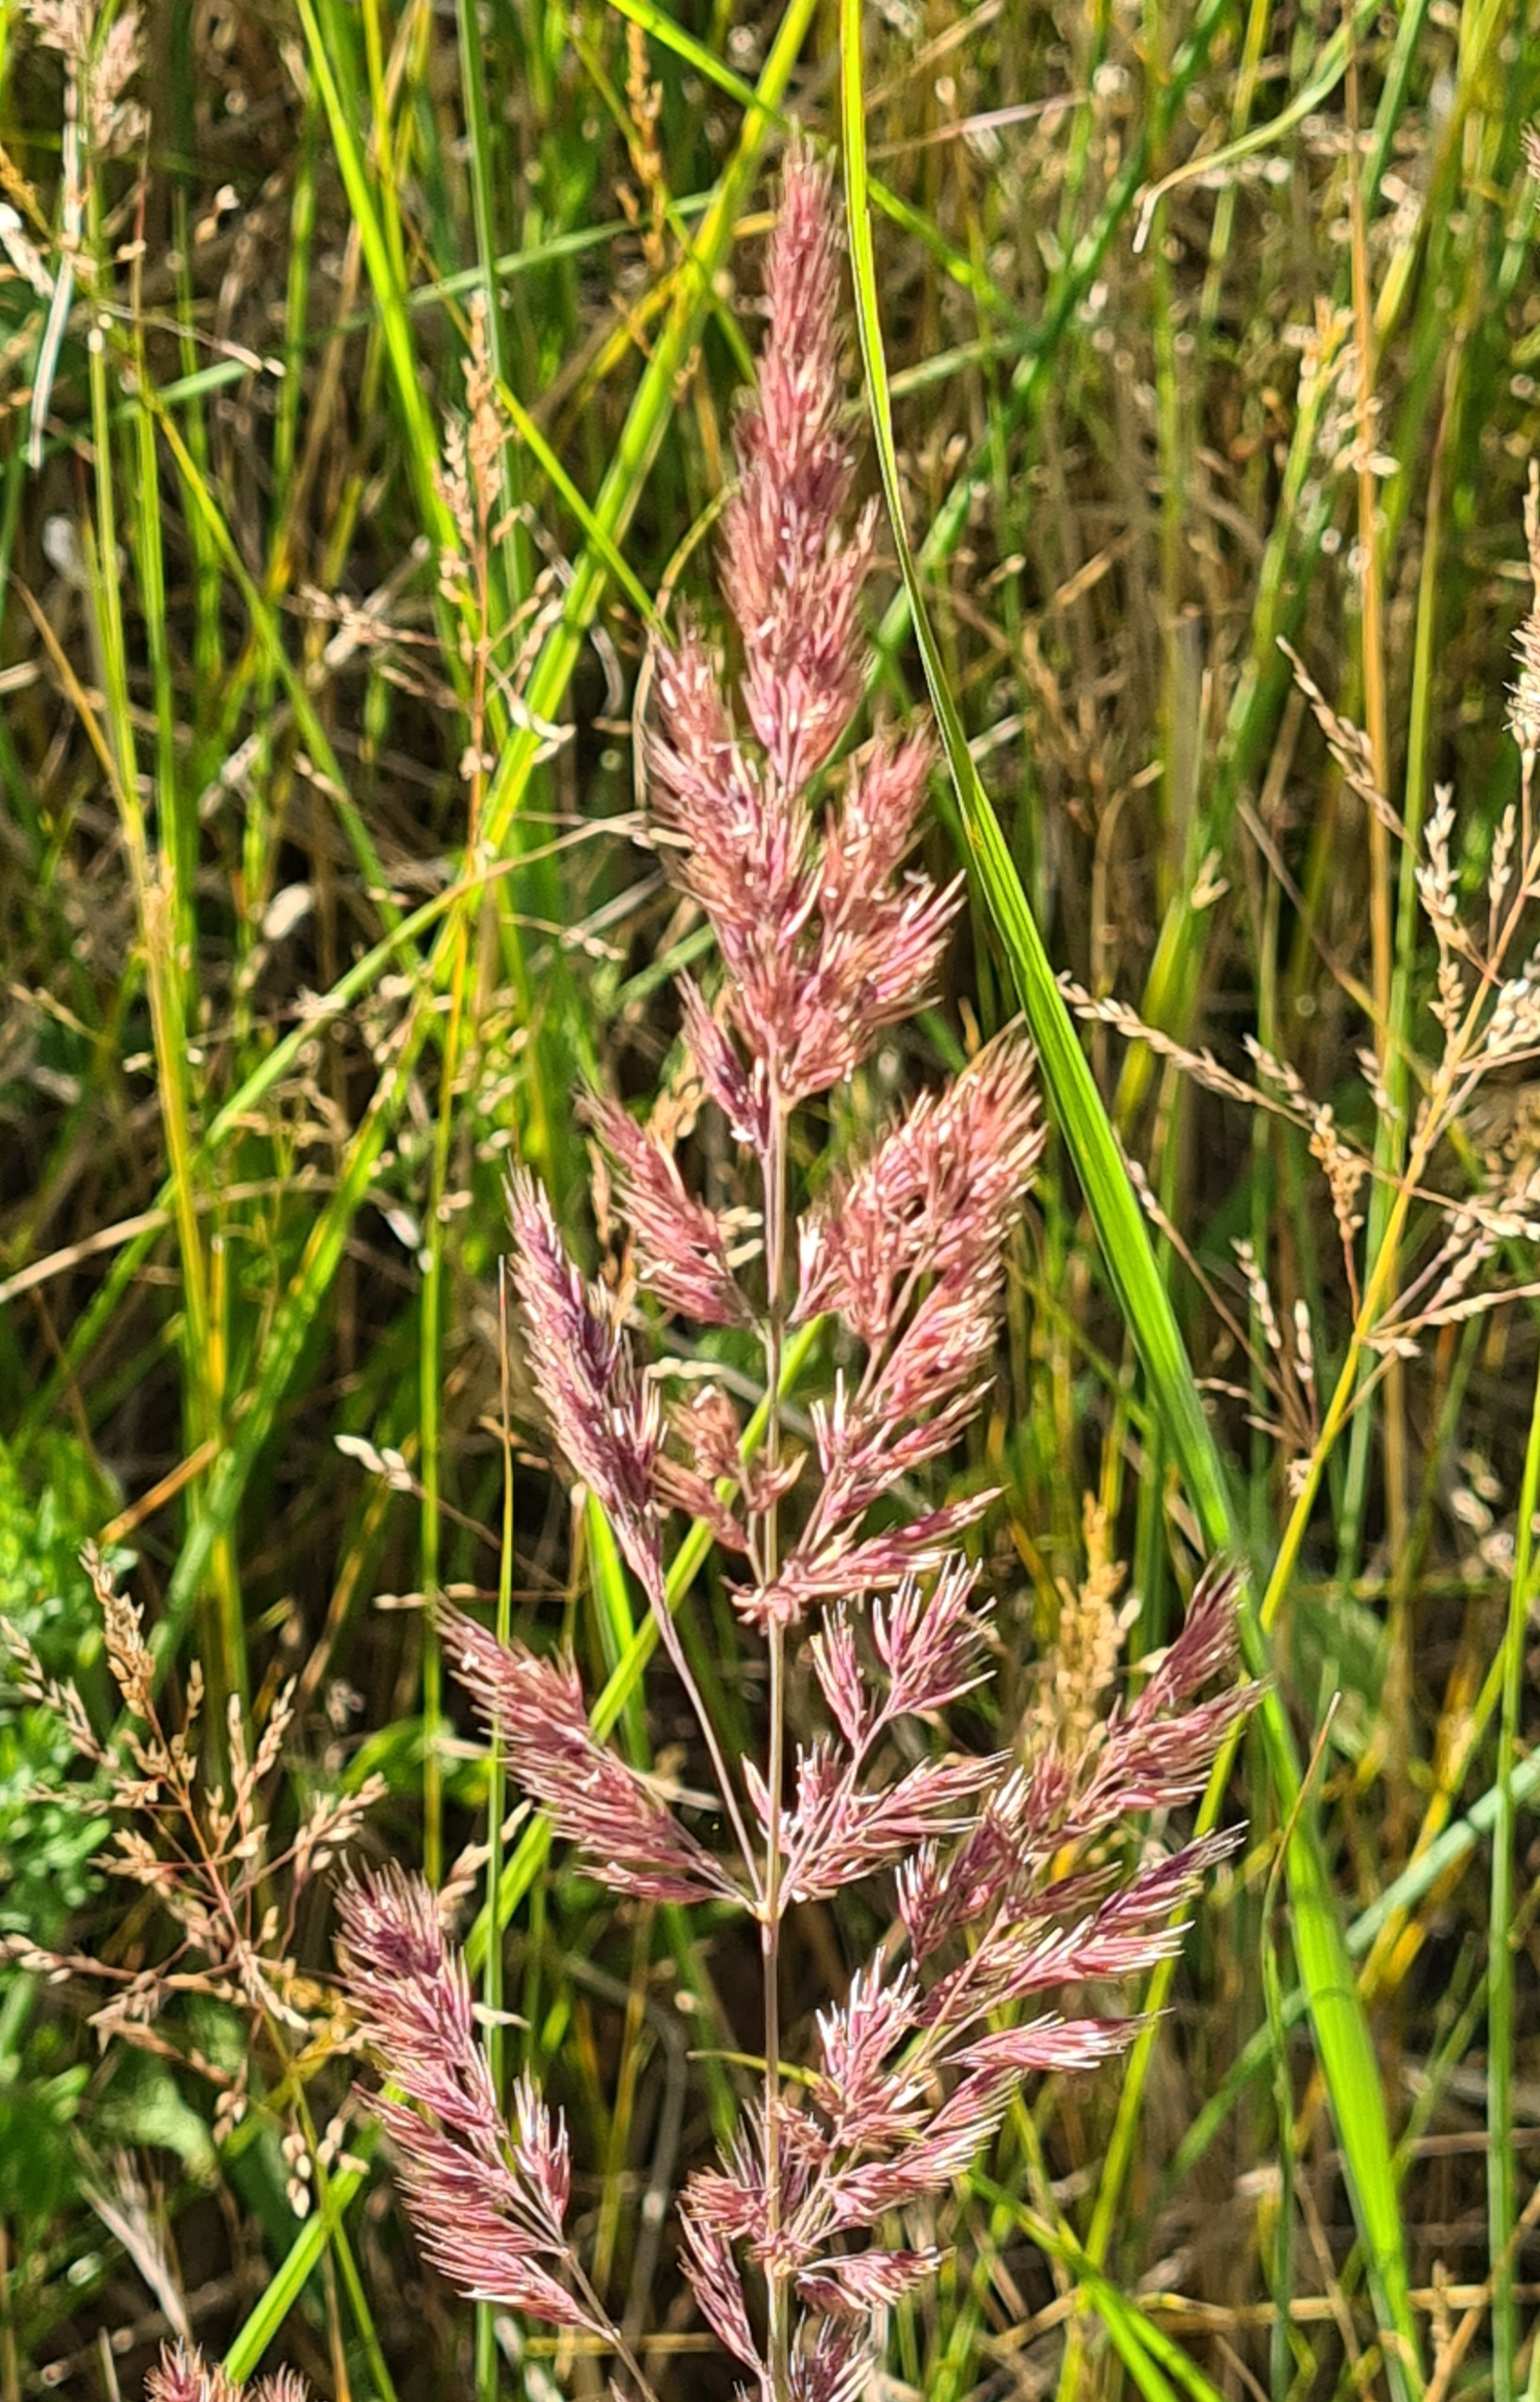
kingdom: Plantae
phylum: Tracheophyta
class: Liliopsida
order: Poales
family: Poaceae
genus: Calamagrostis
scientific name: Calamagrostis epigejos
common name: Bjerg-rørhvene
